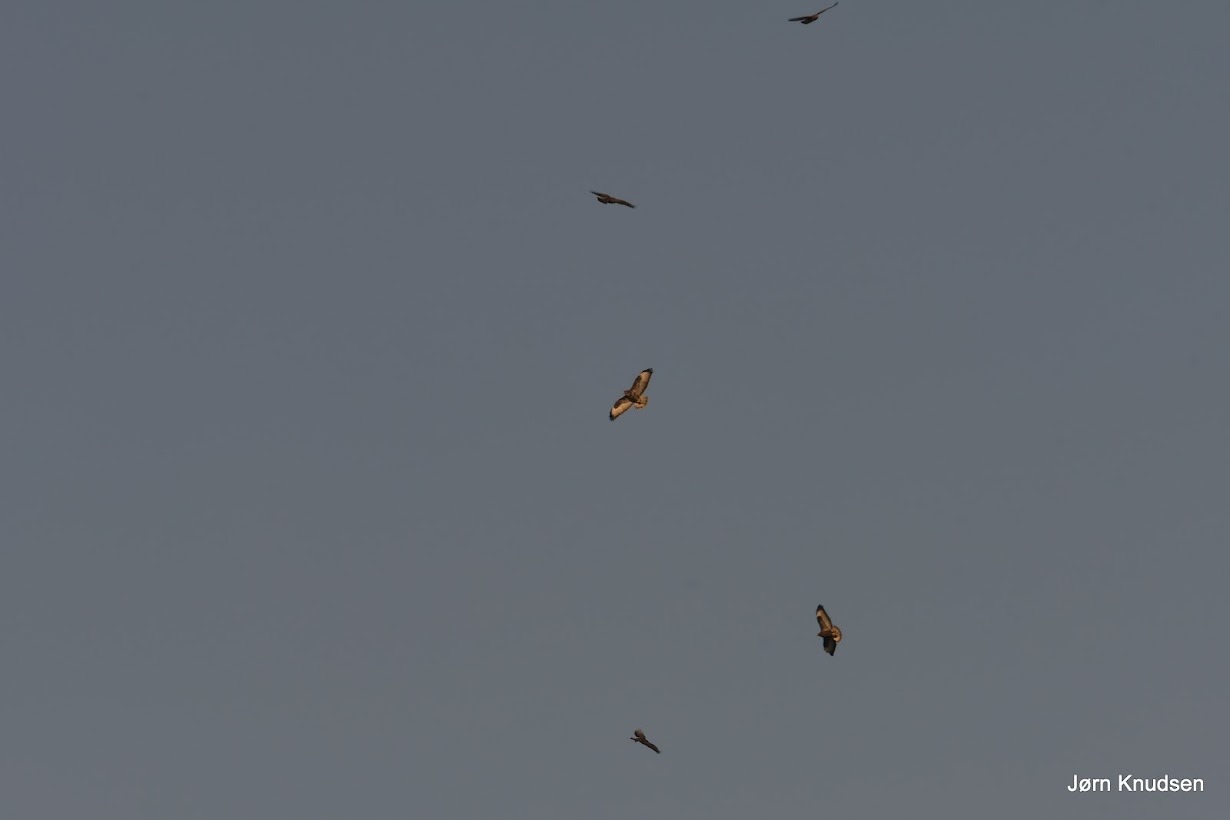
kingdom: Animalia
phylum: Chordata
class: Aves
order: Accipitriformes
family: Accipitridae
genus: Buteo
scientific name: Buteo buteo
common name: Musvåge
